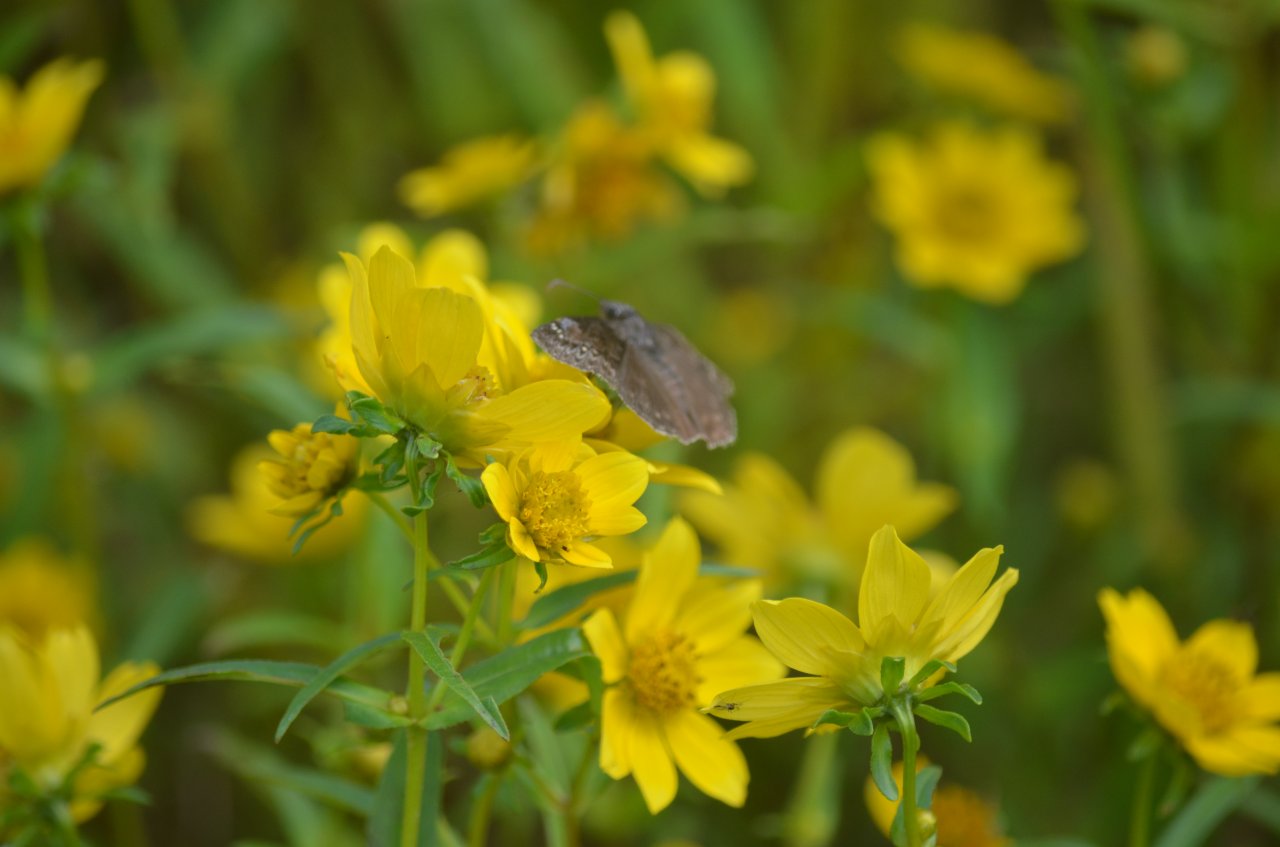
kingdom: Animalia
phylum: Arthropoda
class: Insecta
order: Lepidoptera
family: Hesperiidae
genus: Gesta
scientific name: Gesta
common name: Wild Indigo Duskywing
